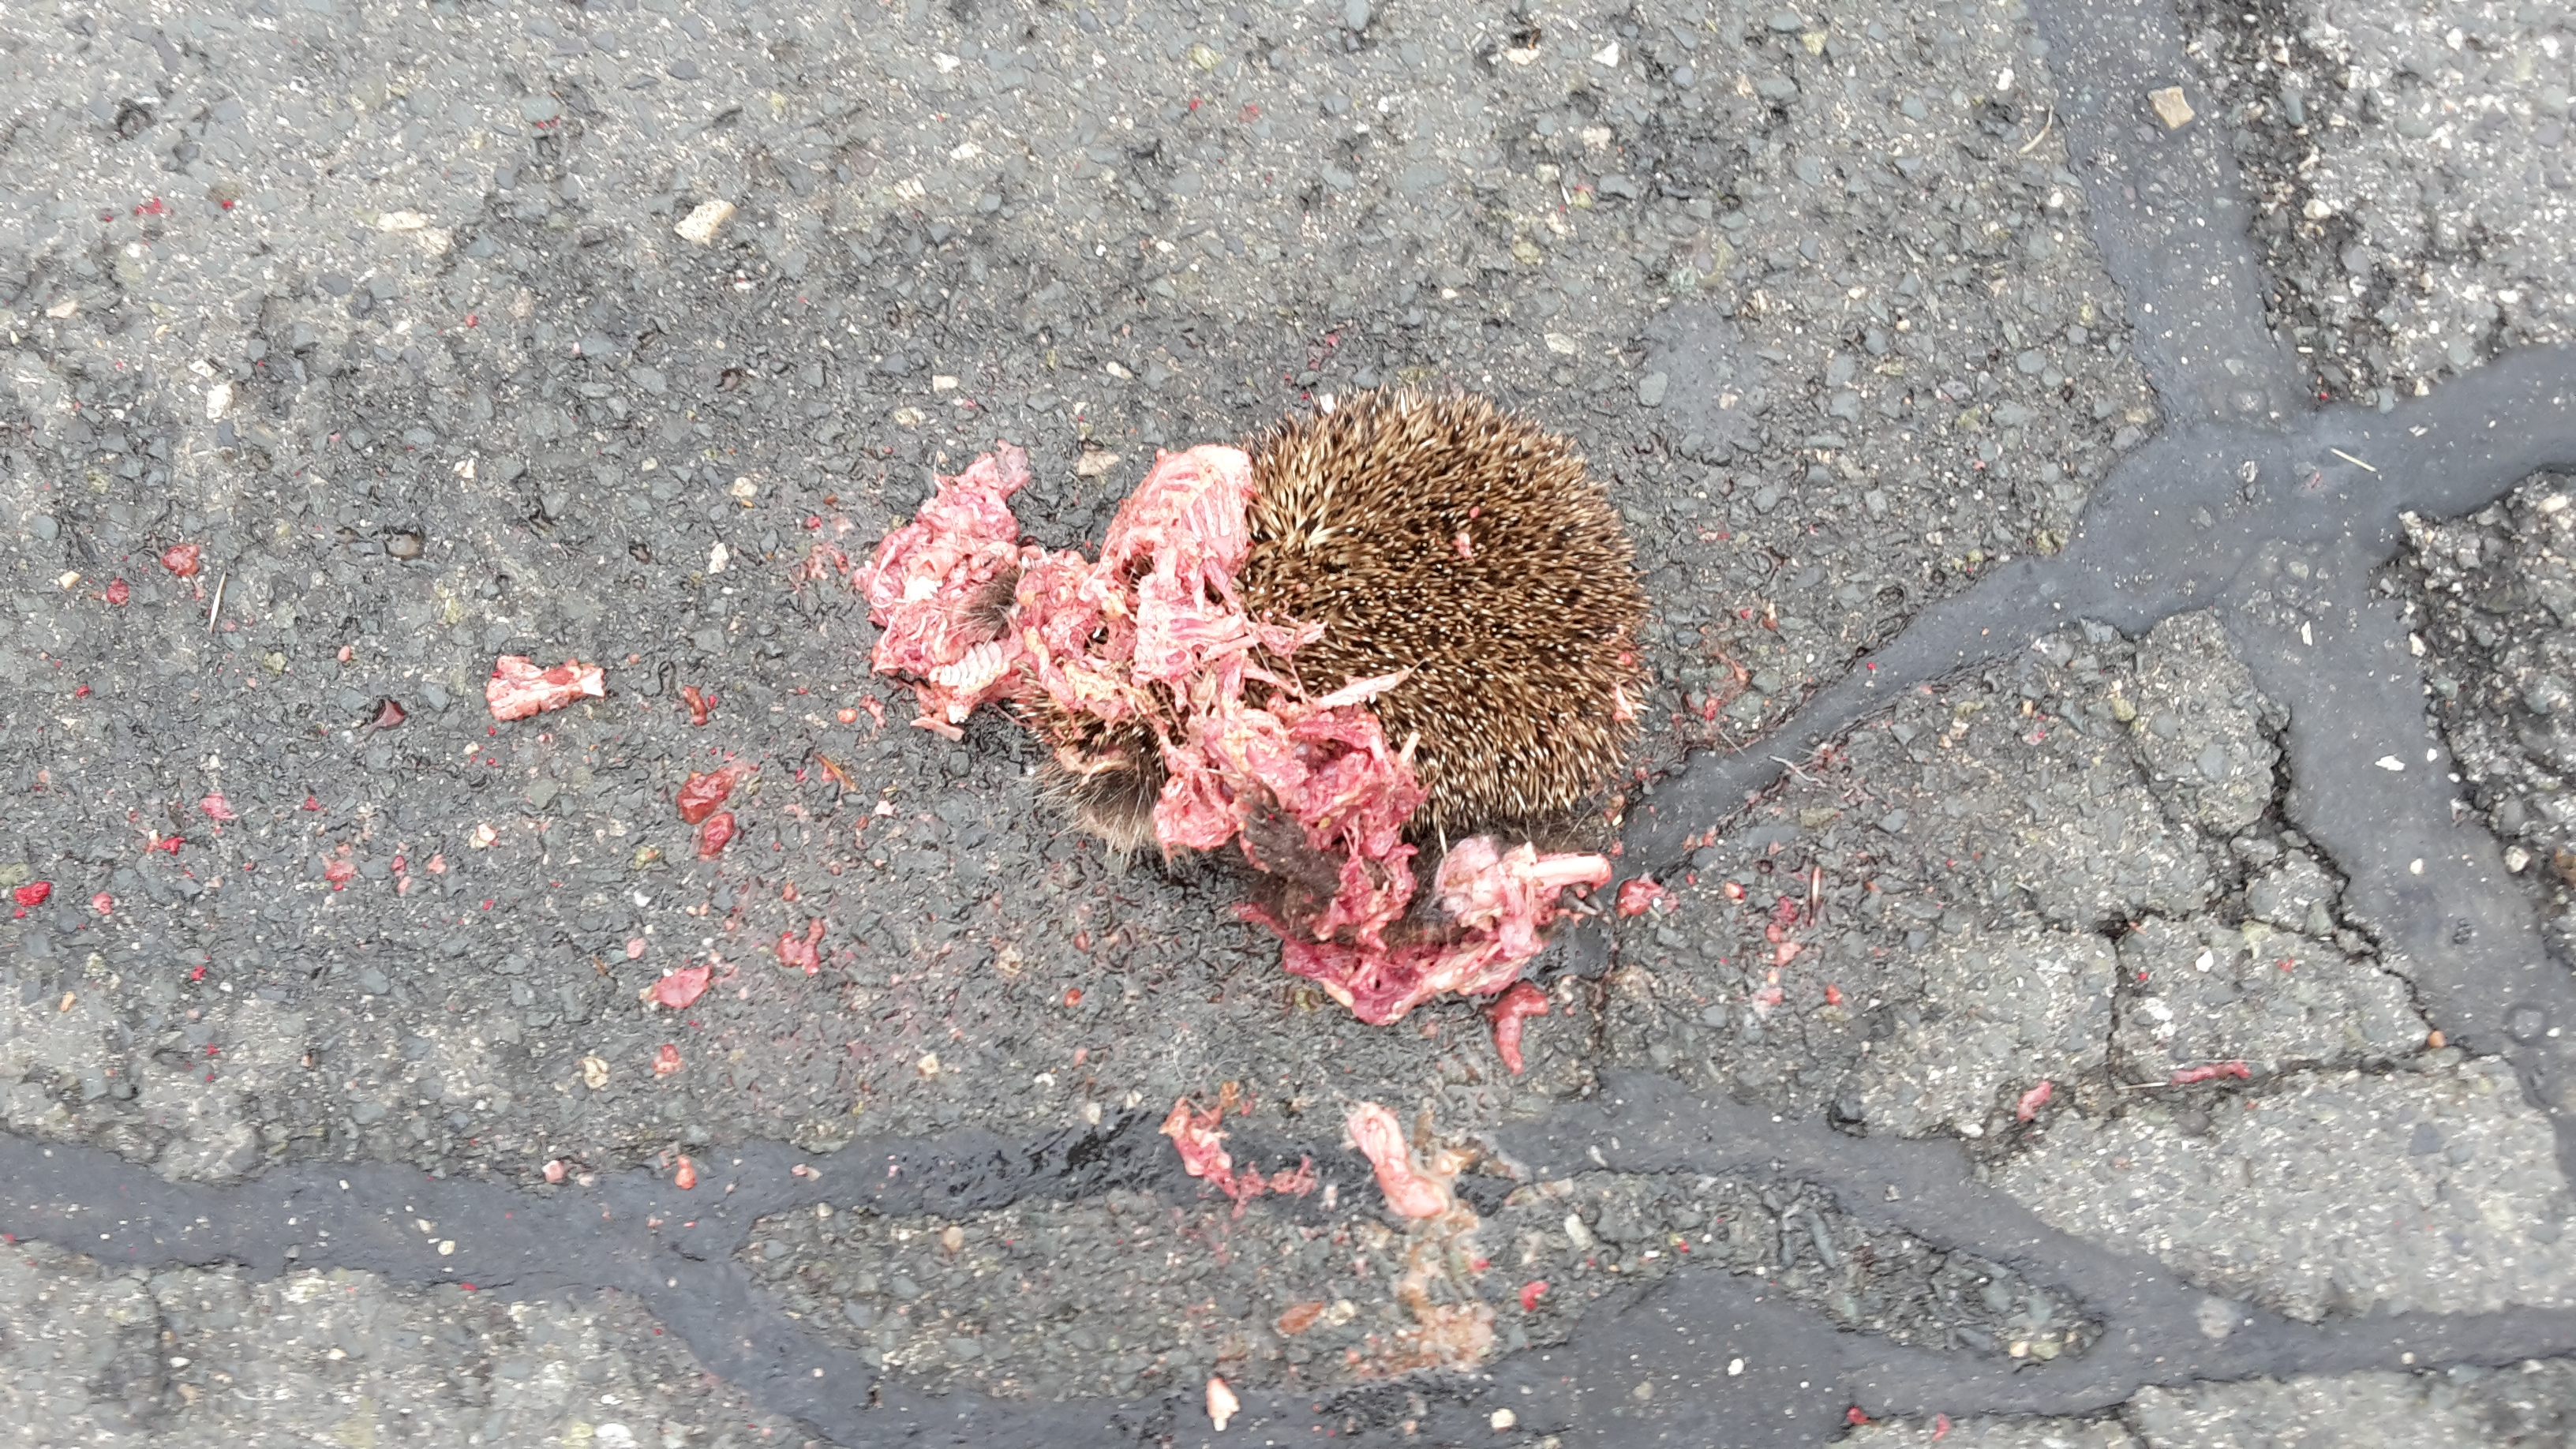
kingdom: Animalia
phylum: Chordata
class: Mammalia
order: Erinaceomorpha
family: Erinaceidae
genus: Erinaceus
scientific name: Erinaceus
